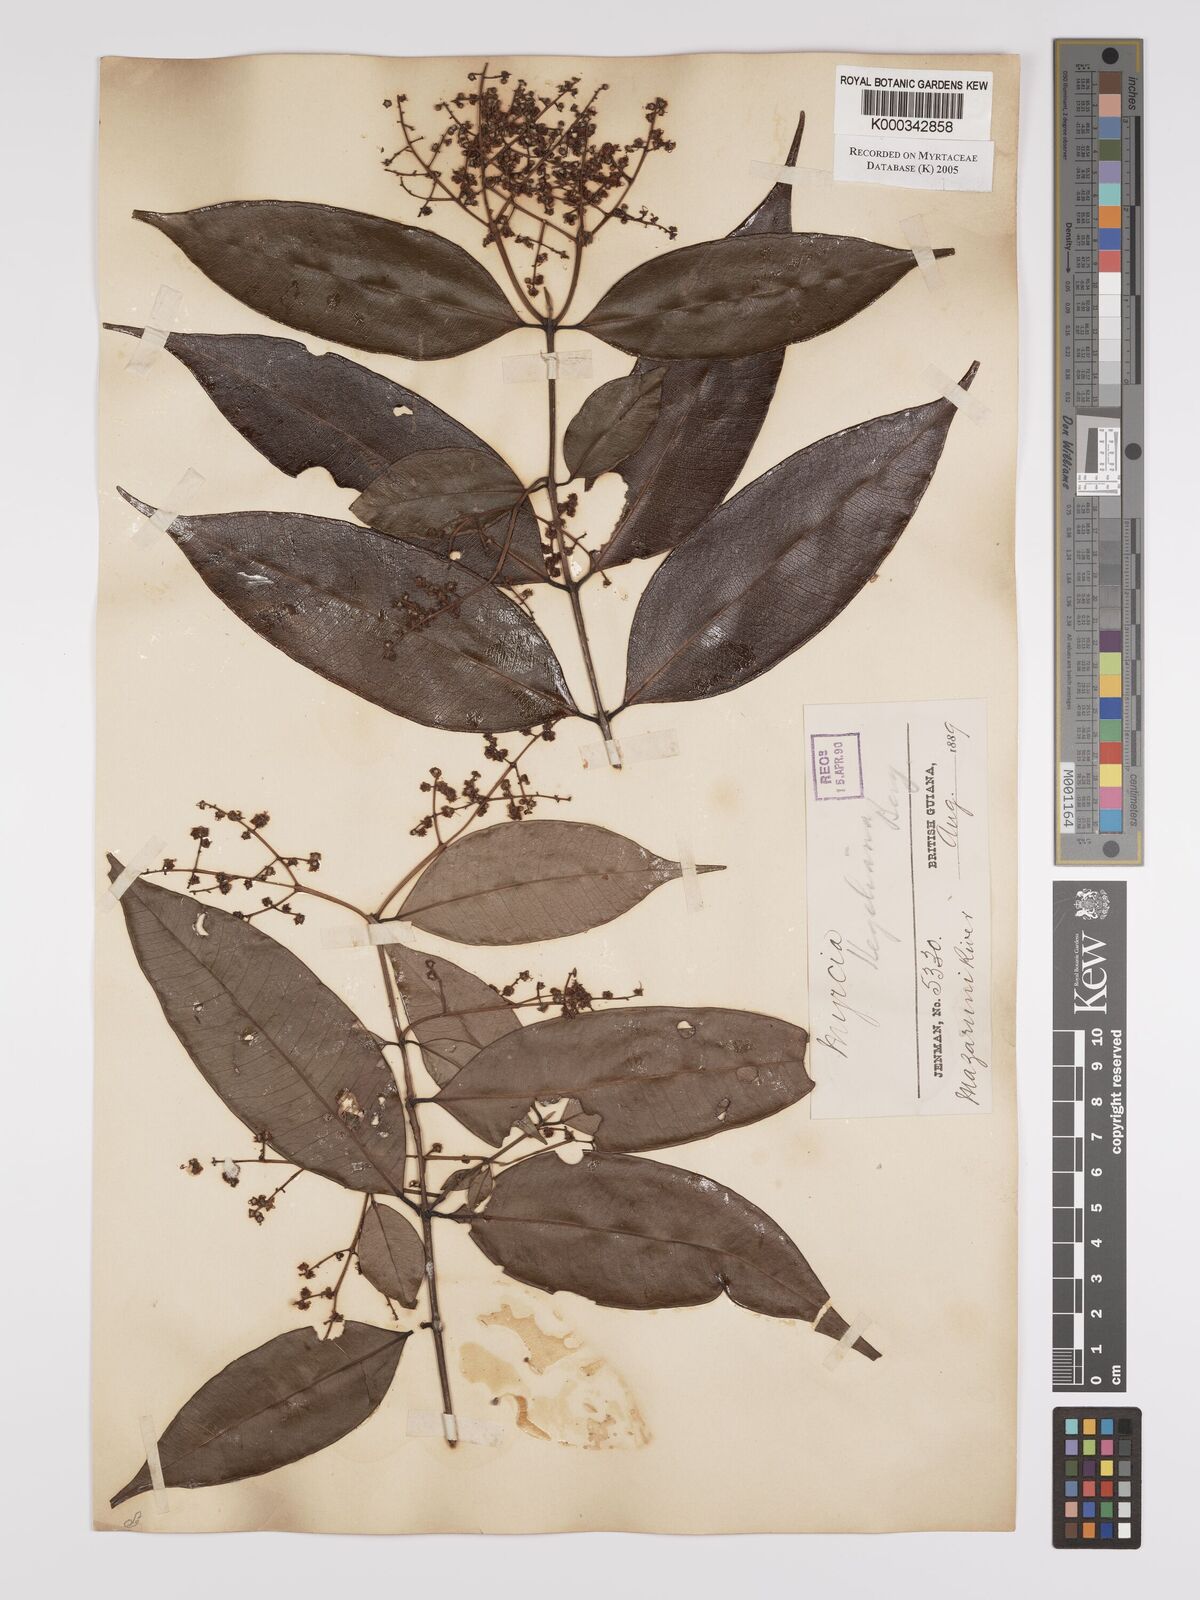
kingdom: Plantae
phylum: Tracheophyta
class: Magnoliopsida
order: Myrtales
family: Myrtaceae
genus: Myrcia
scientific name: Myrcia splendens
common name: Surinam cherry
